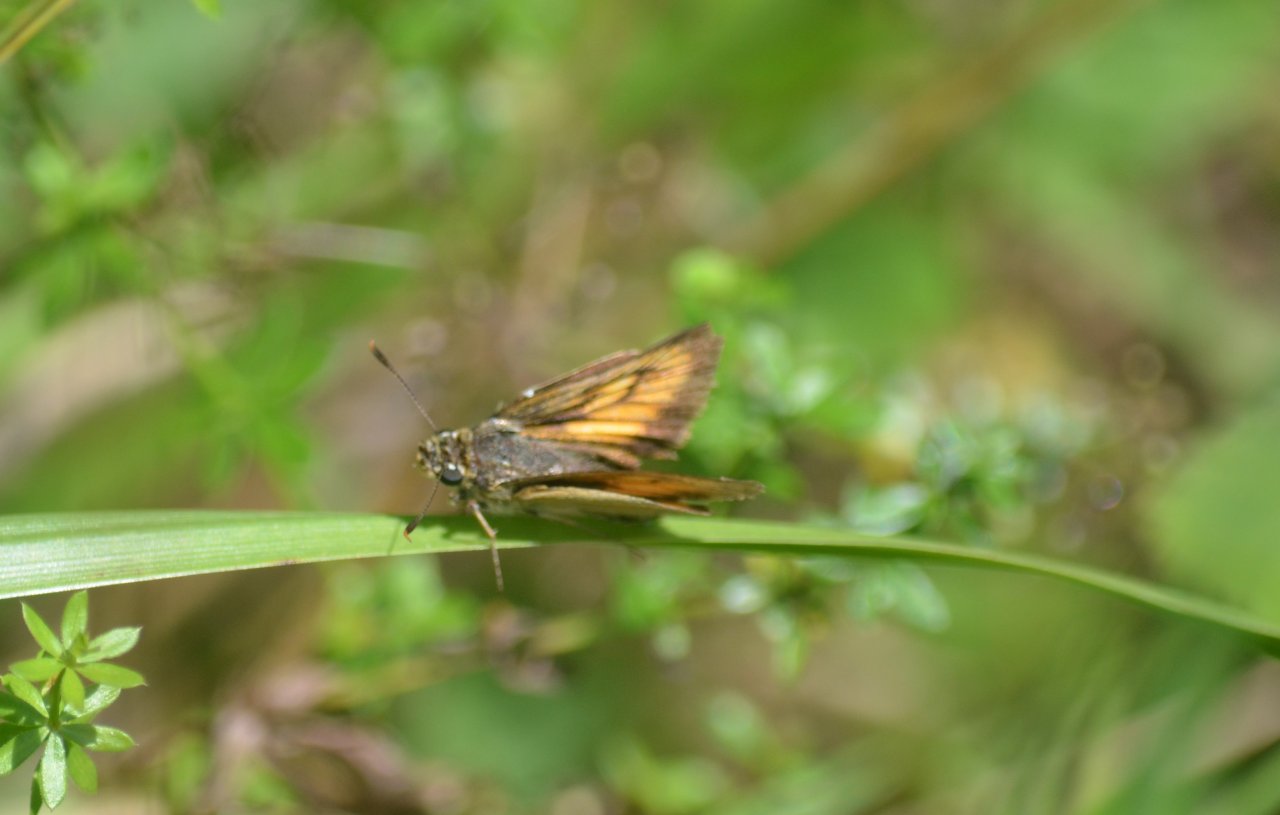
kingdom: Animalia
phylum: Arthropoda
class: Insecta
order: Lepidoptera
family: Hesperiidae
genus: Atrytone
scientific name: Atrytone delaware
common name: Delaware Skipper
